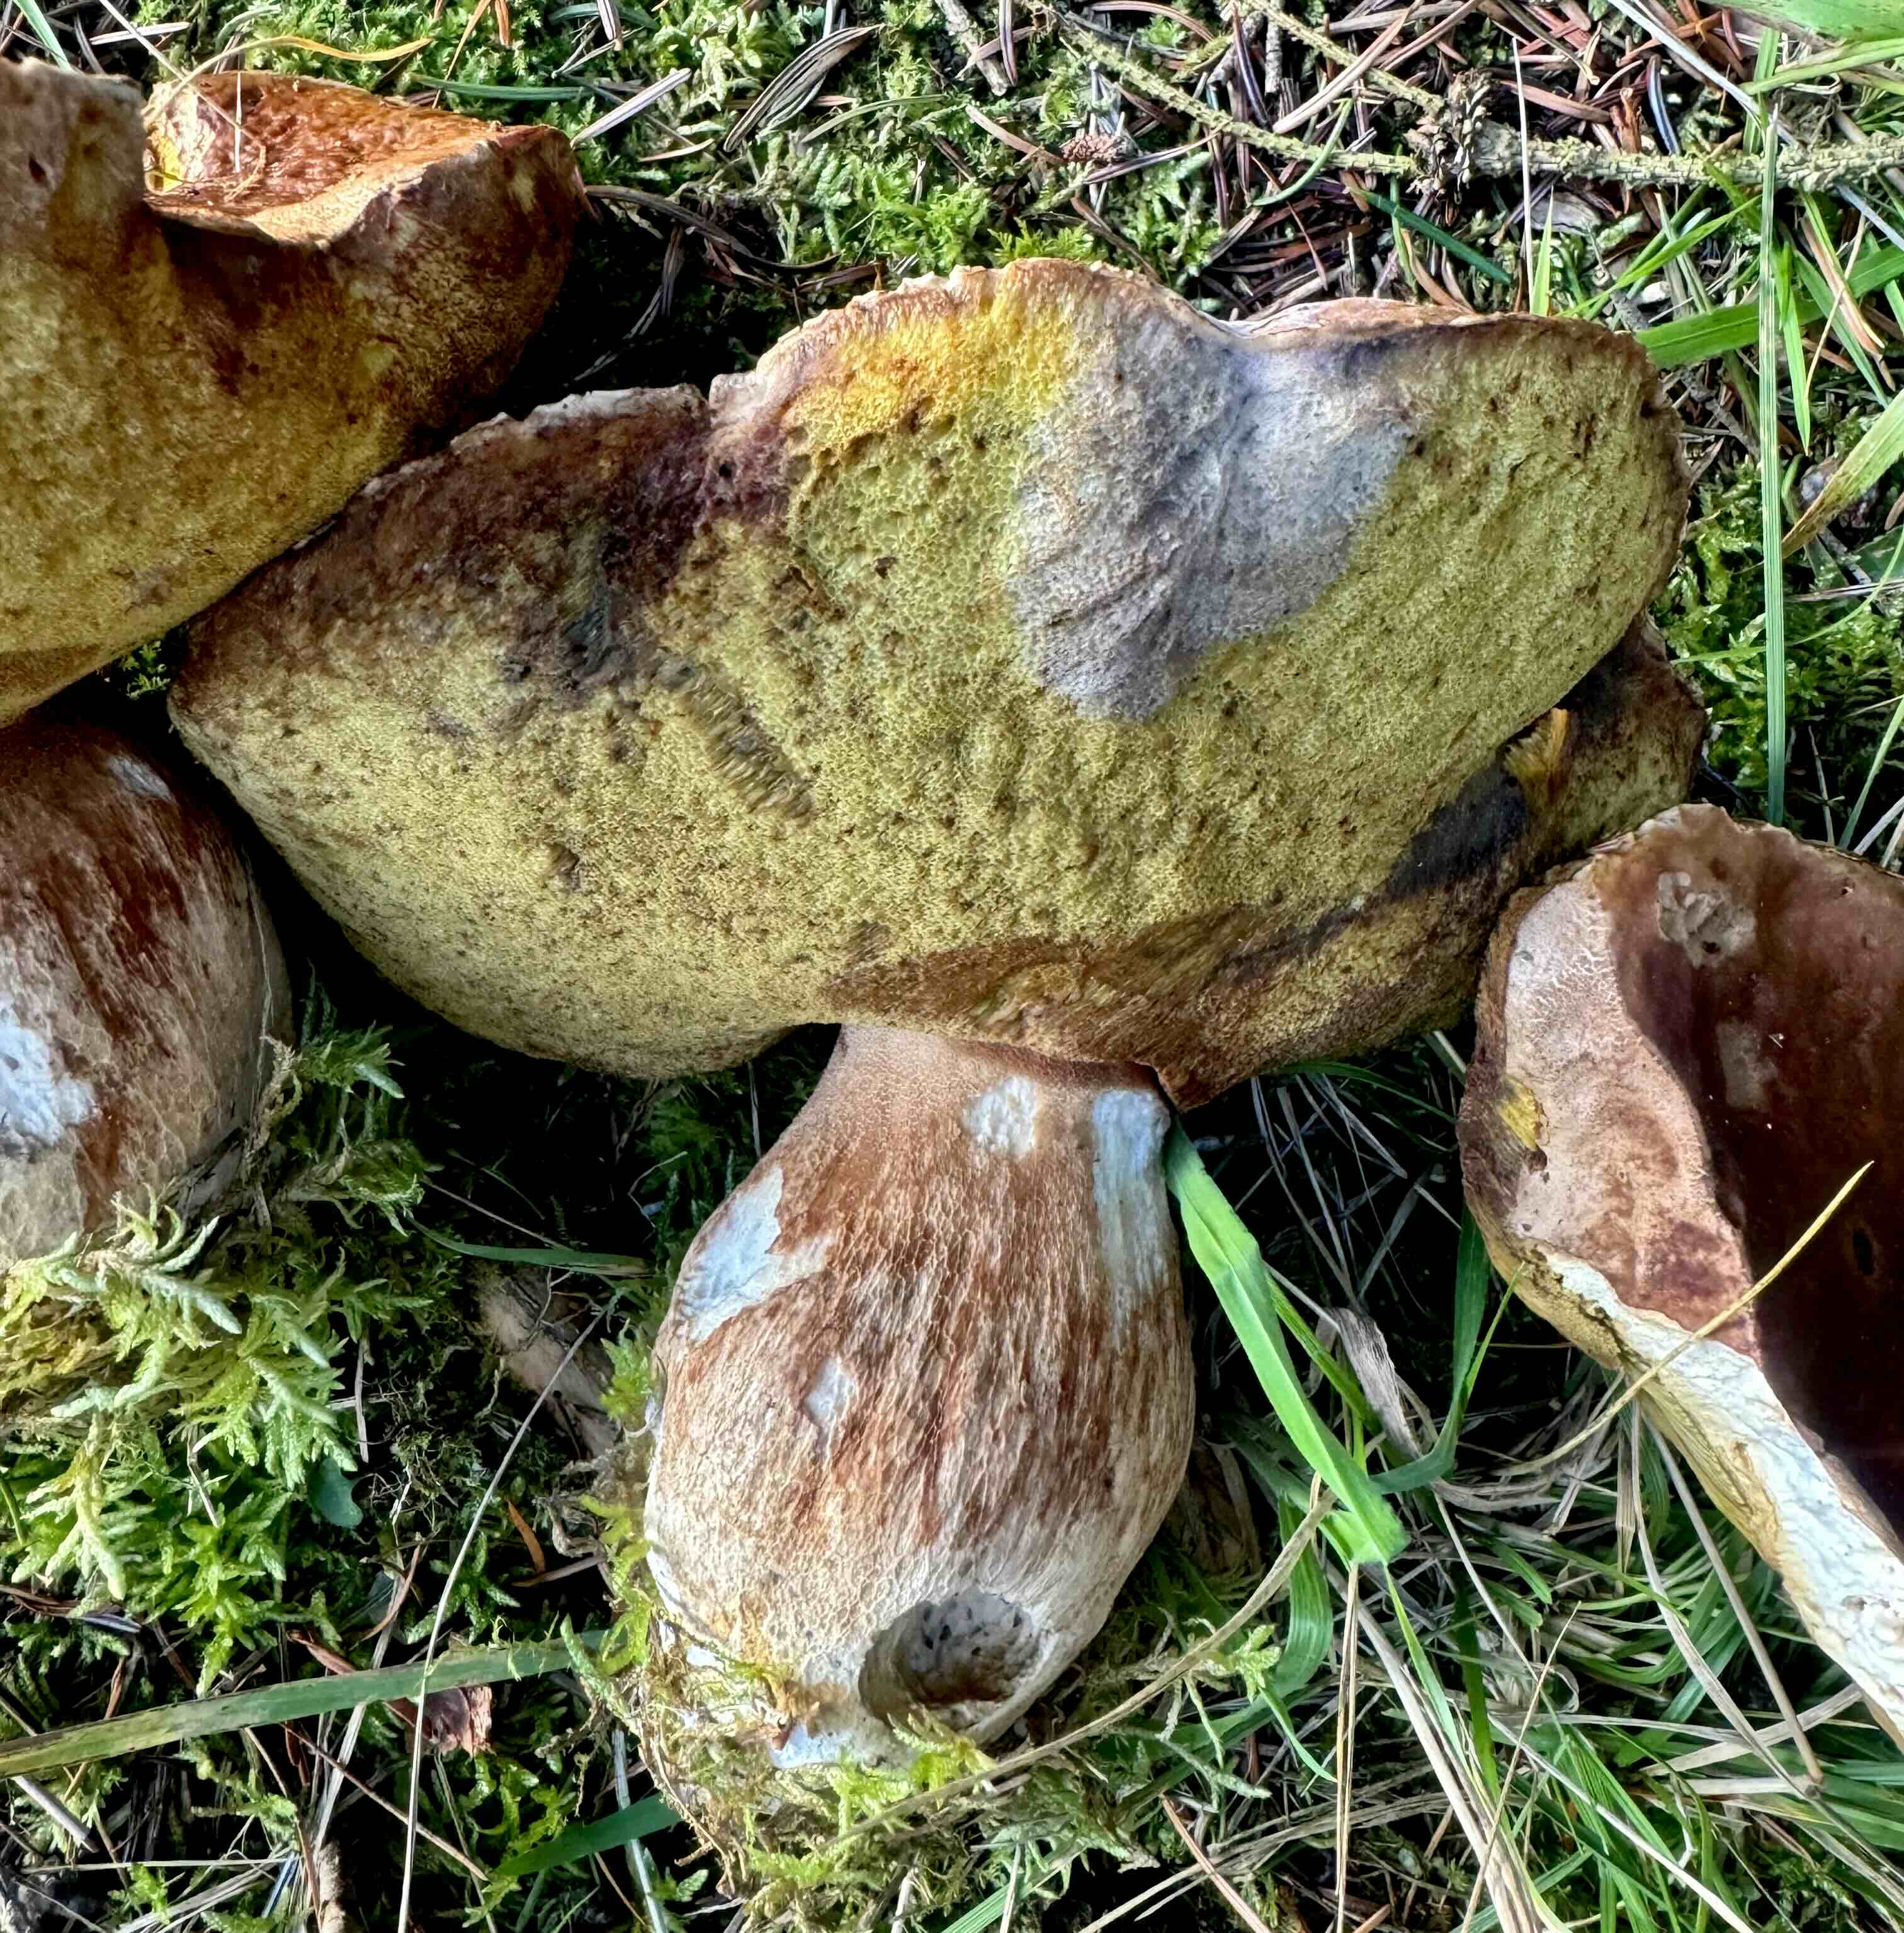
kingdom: Fungi
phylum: Basidiomycota
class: Agaricomycetes
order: Boletales
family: Boletaceae
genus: Boletus
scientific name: Boletus edulis
